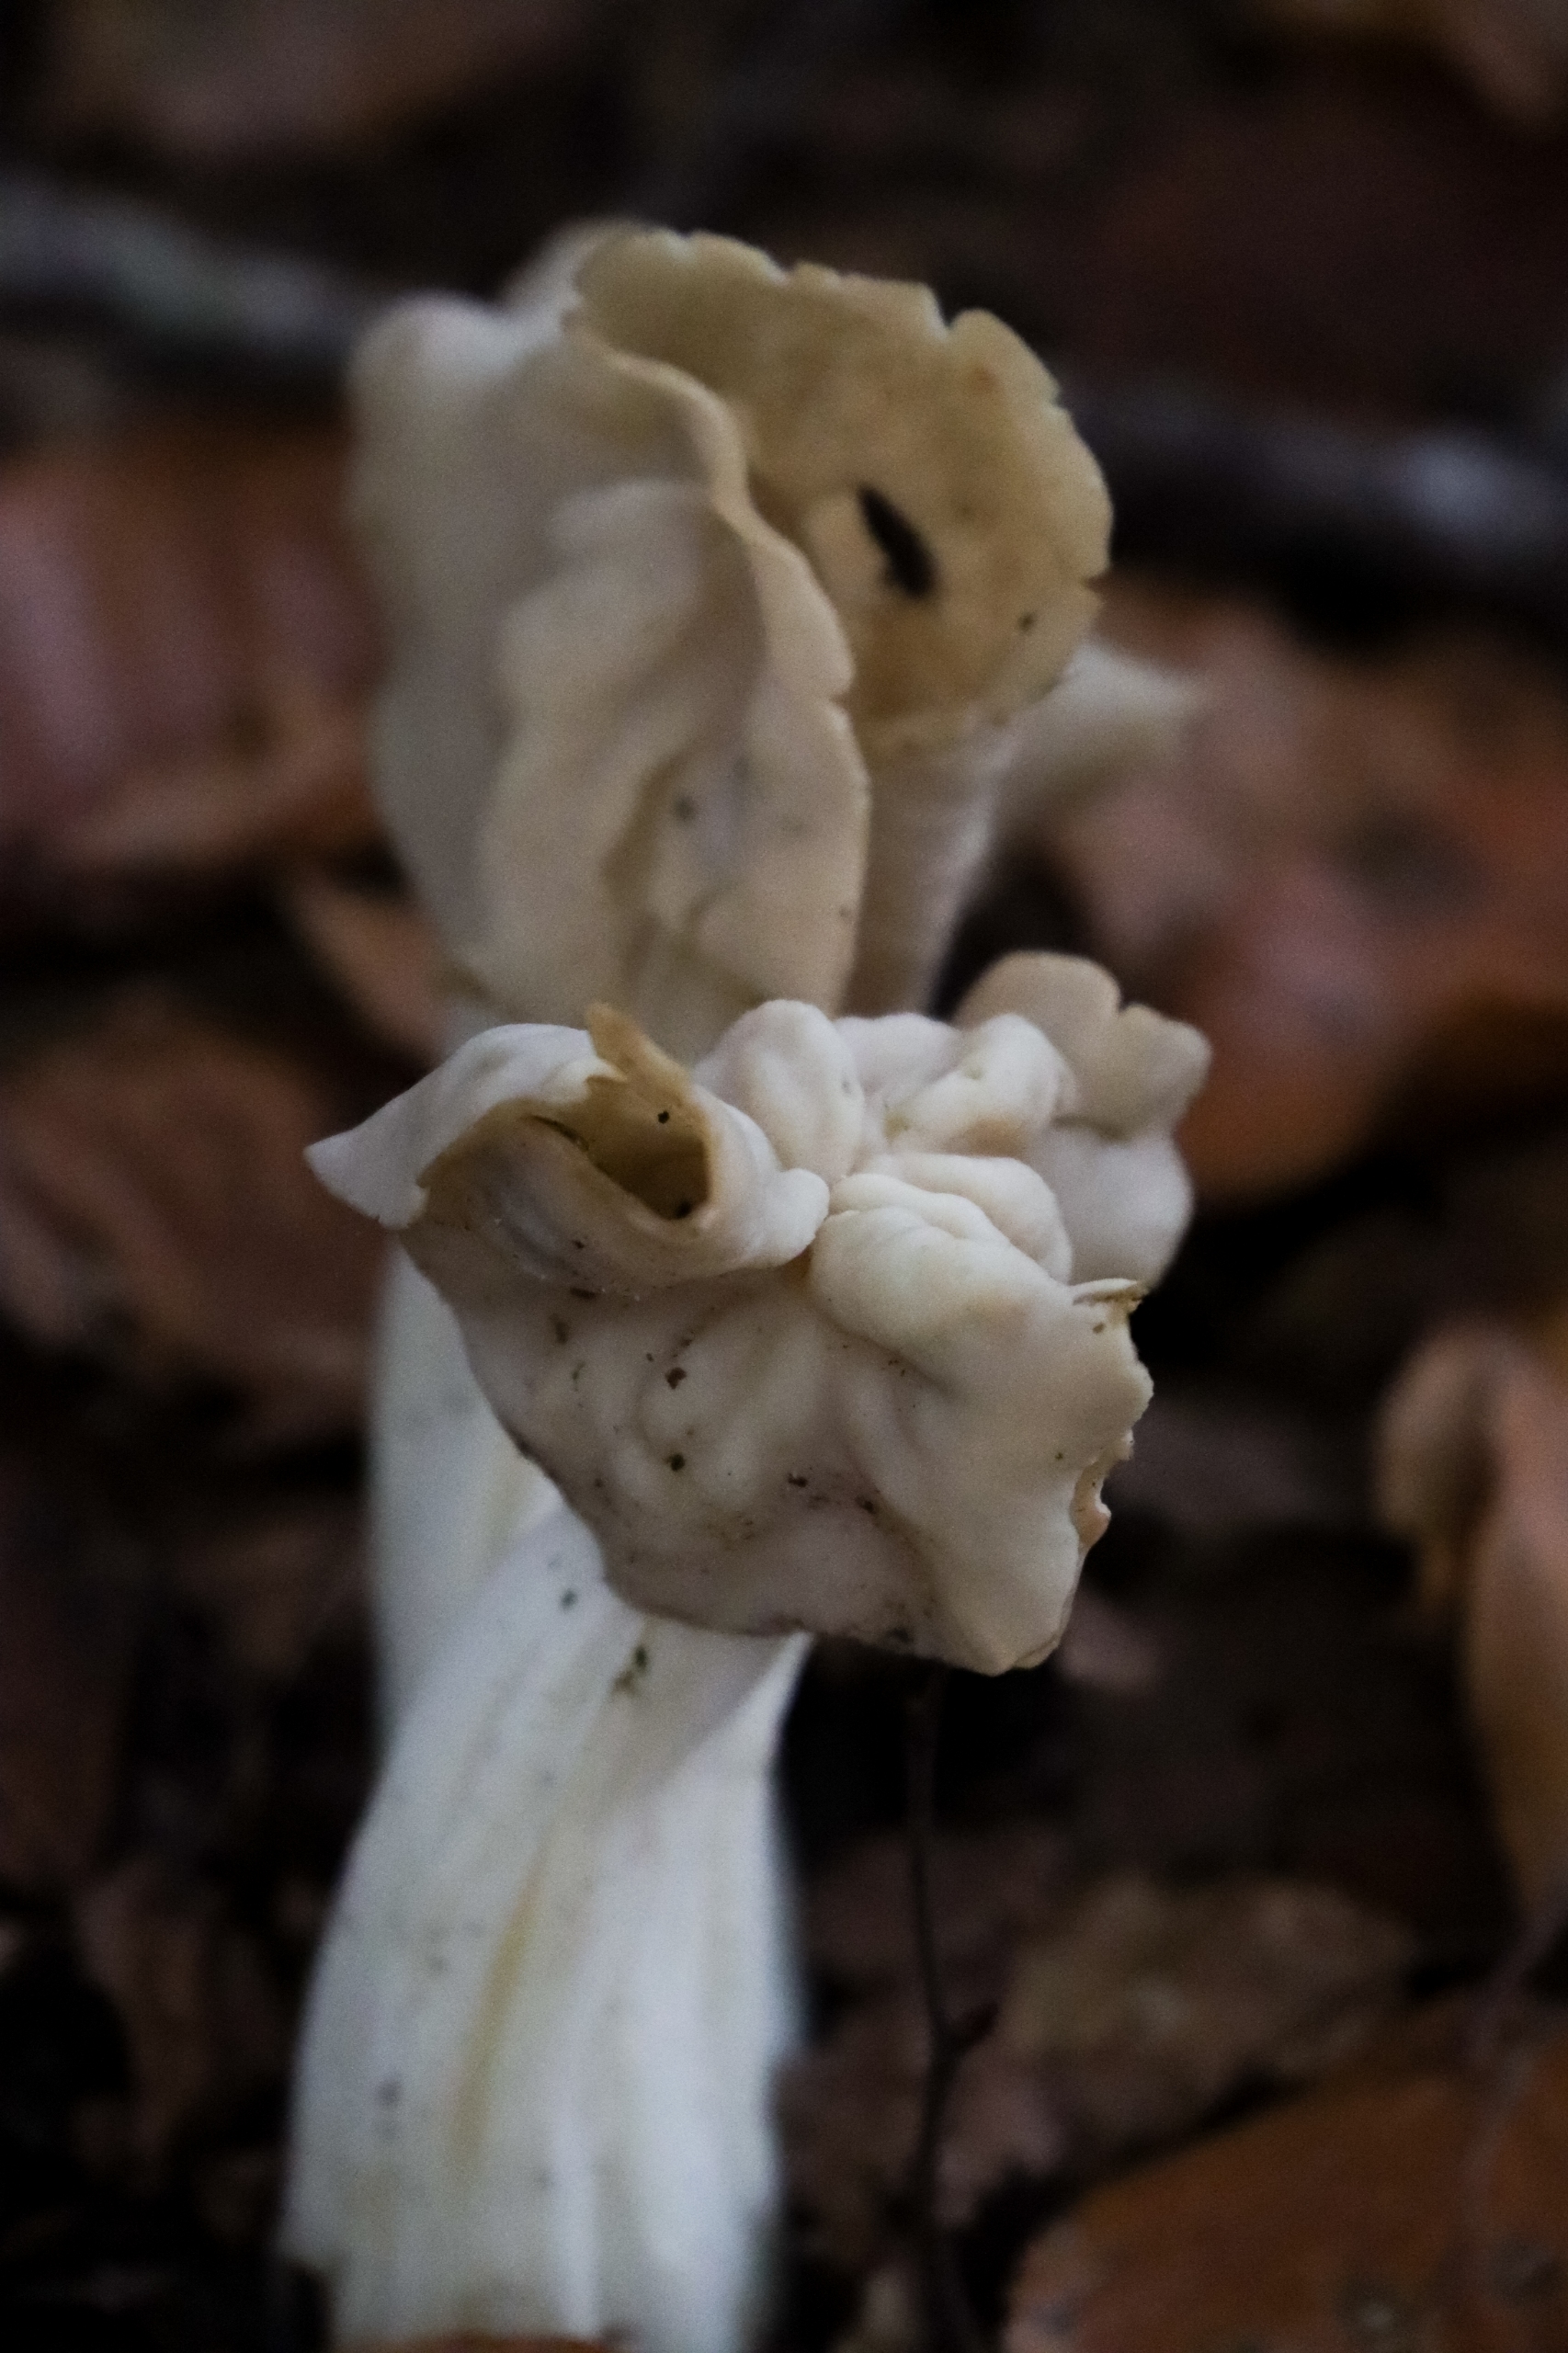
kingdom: Fungi
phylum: Ascomycota
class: Pezizomycetes
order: Pezizales
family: Helvellaceae
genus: Helvella
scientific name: Helvella crispa
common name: Kruset foldhat
